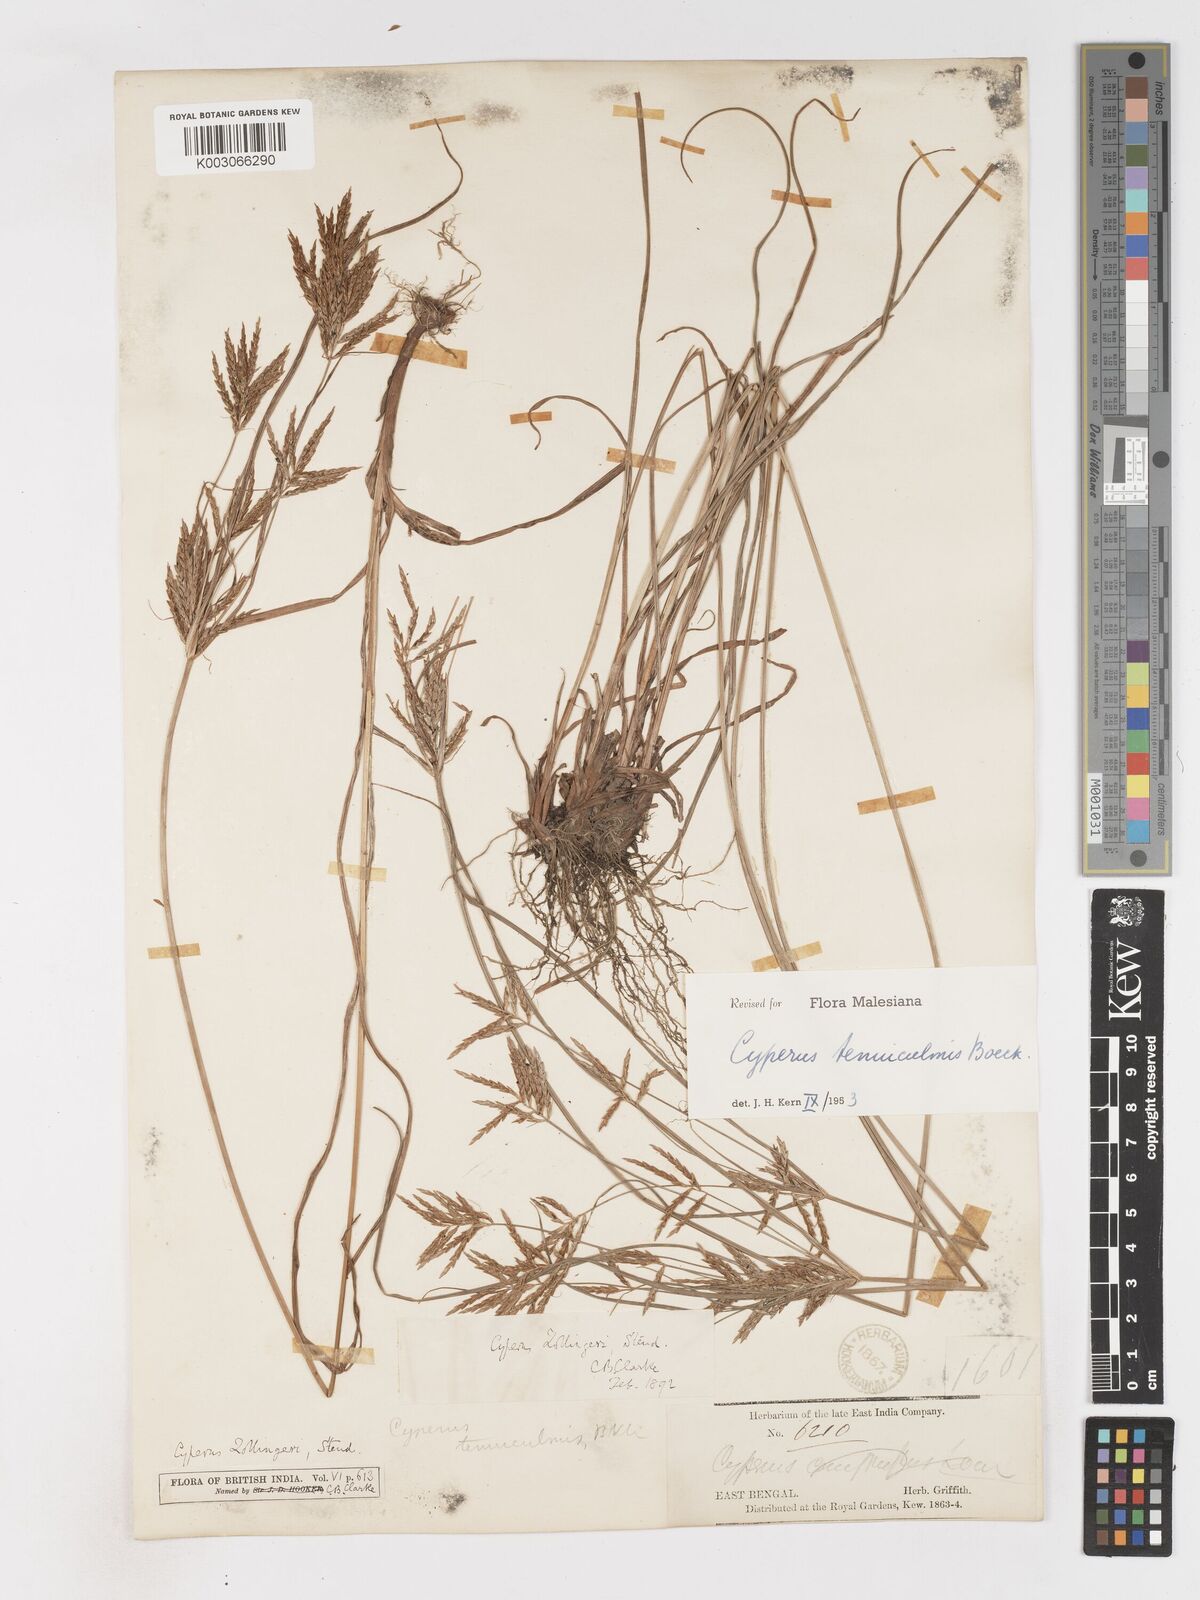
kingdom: Plantae
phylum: Tracheophyta
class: Liliopsida
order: Poales
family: Cyperaceae
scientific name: Cyperaceae
